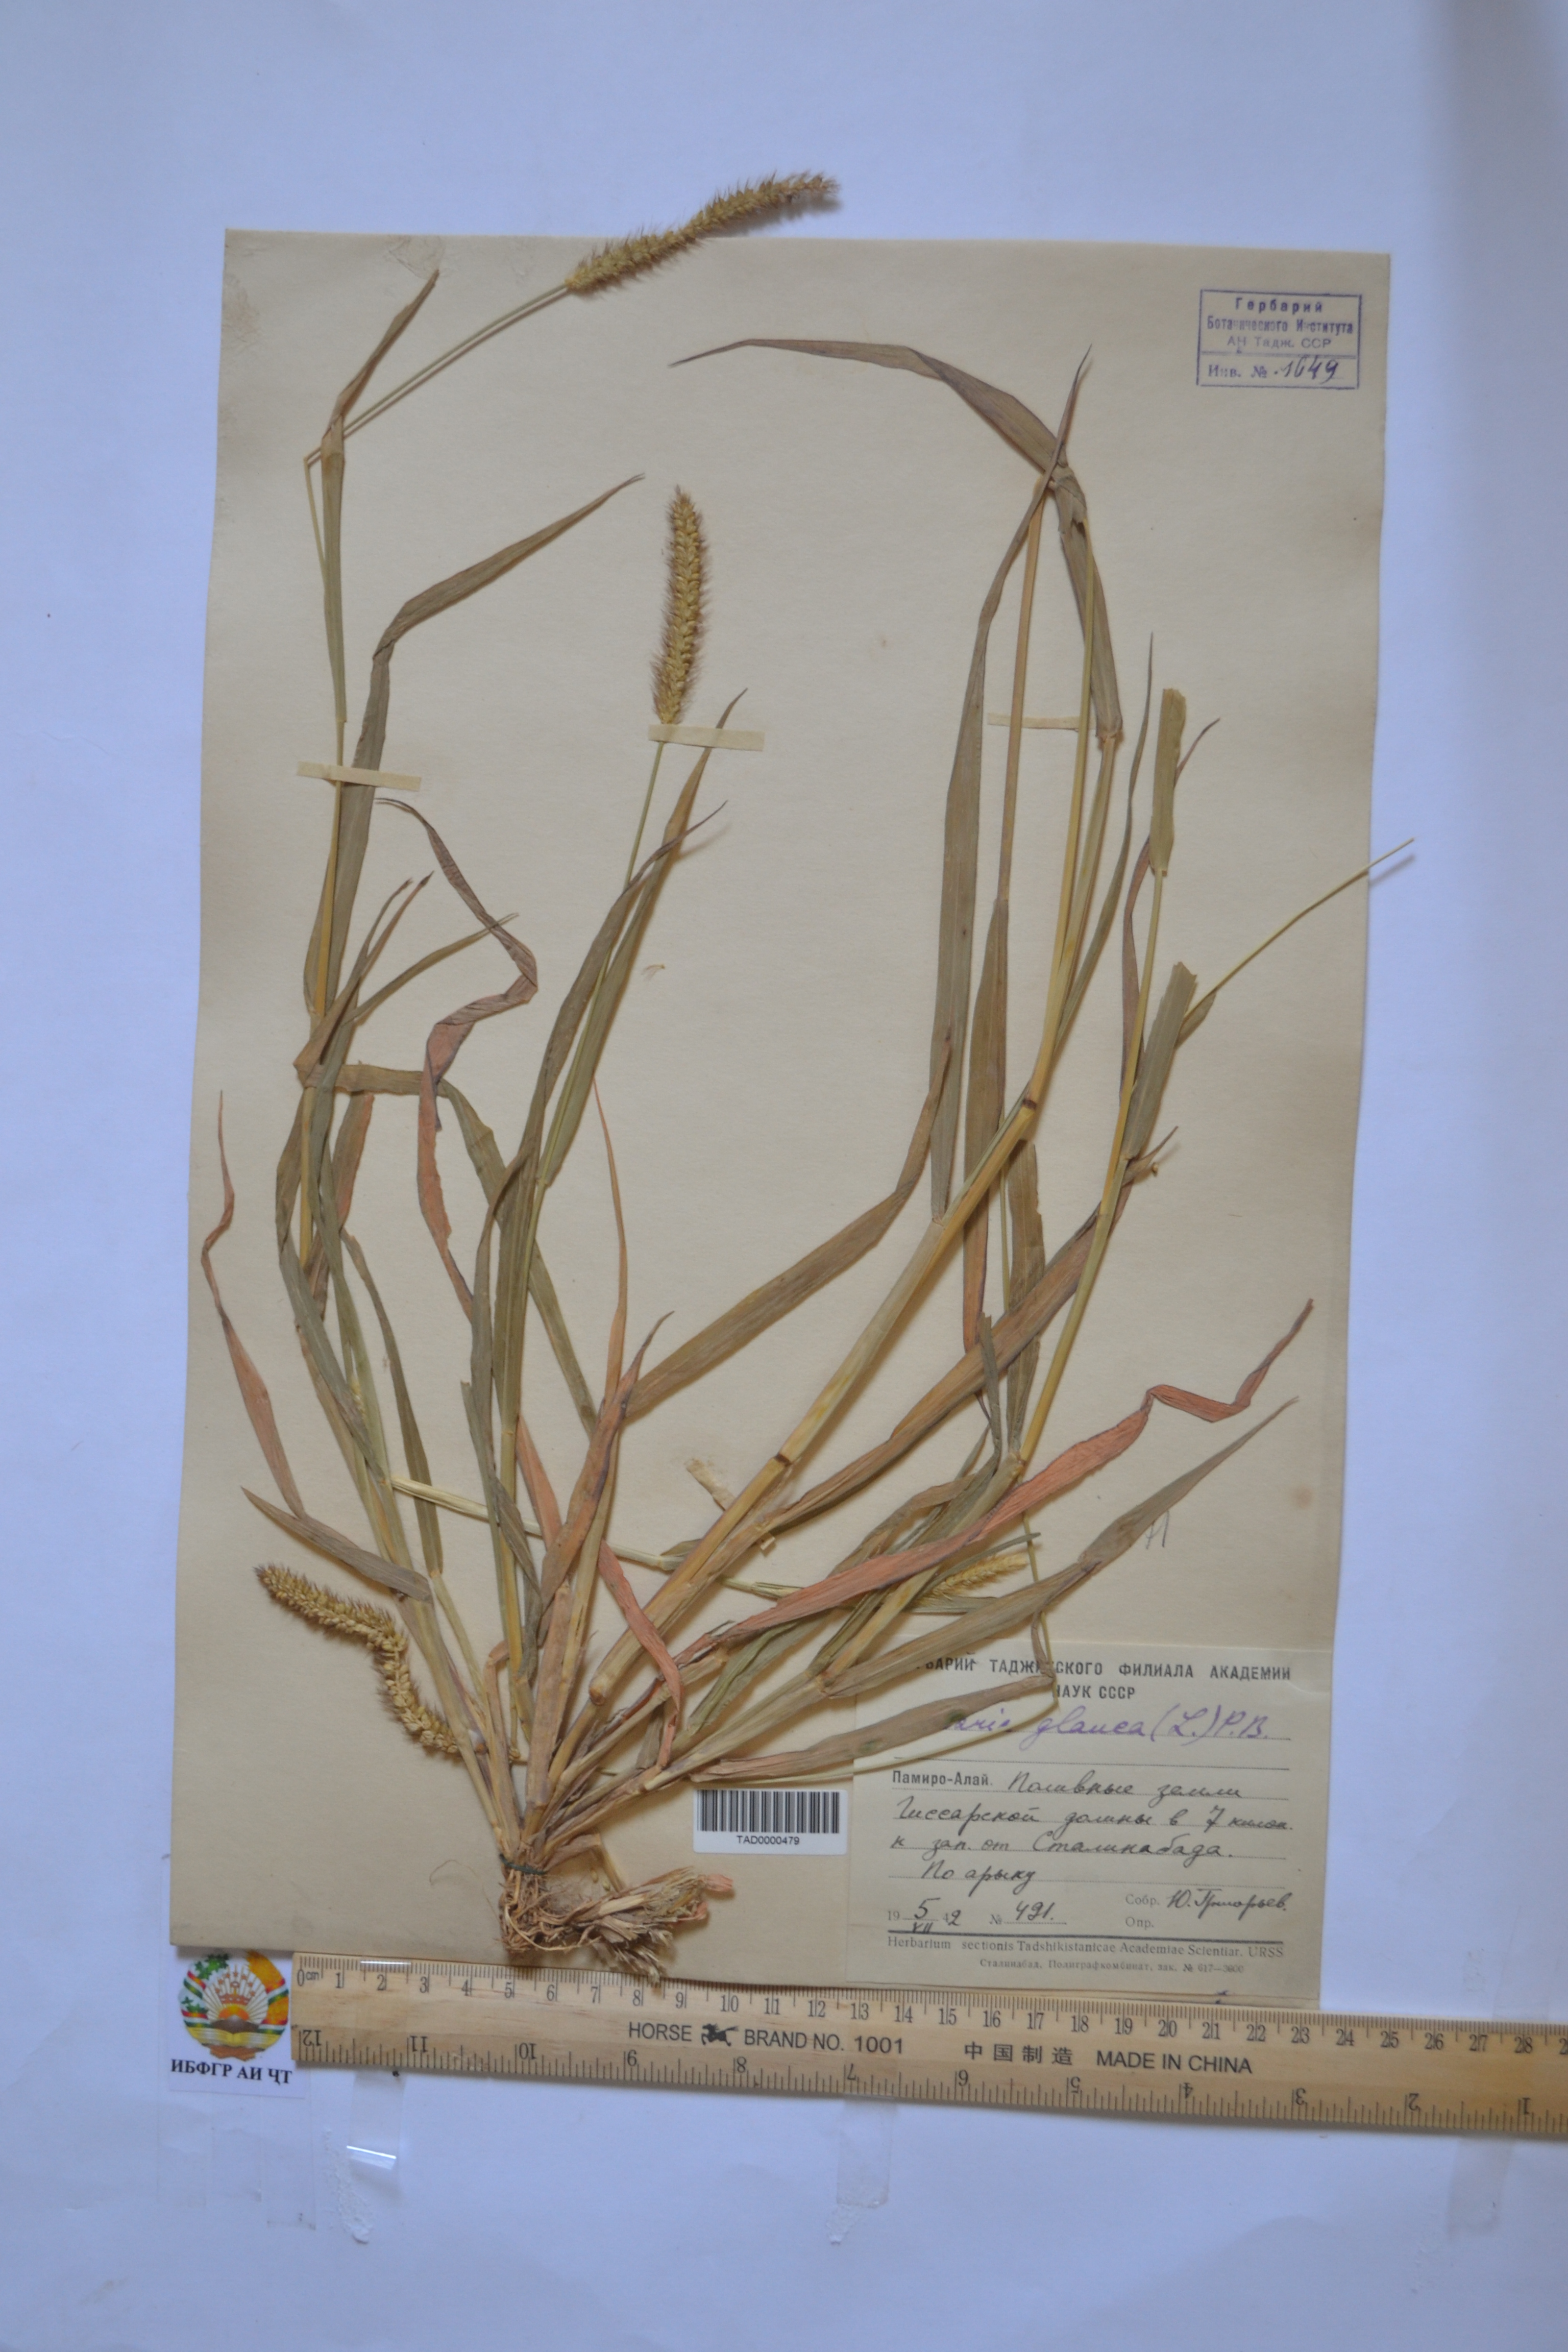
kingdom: Plantae
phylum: Tracheophyta
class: Liliopsida
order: Poales
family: Poaceae
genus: Cenchrus
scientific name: Cenchrus americanus
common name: Pearl millet
